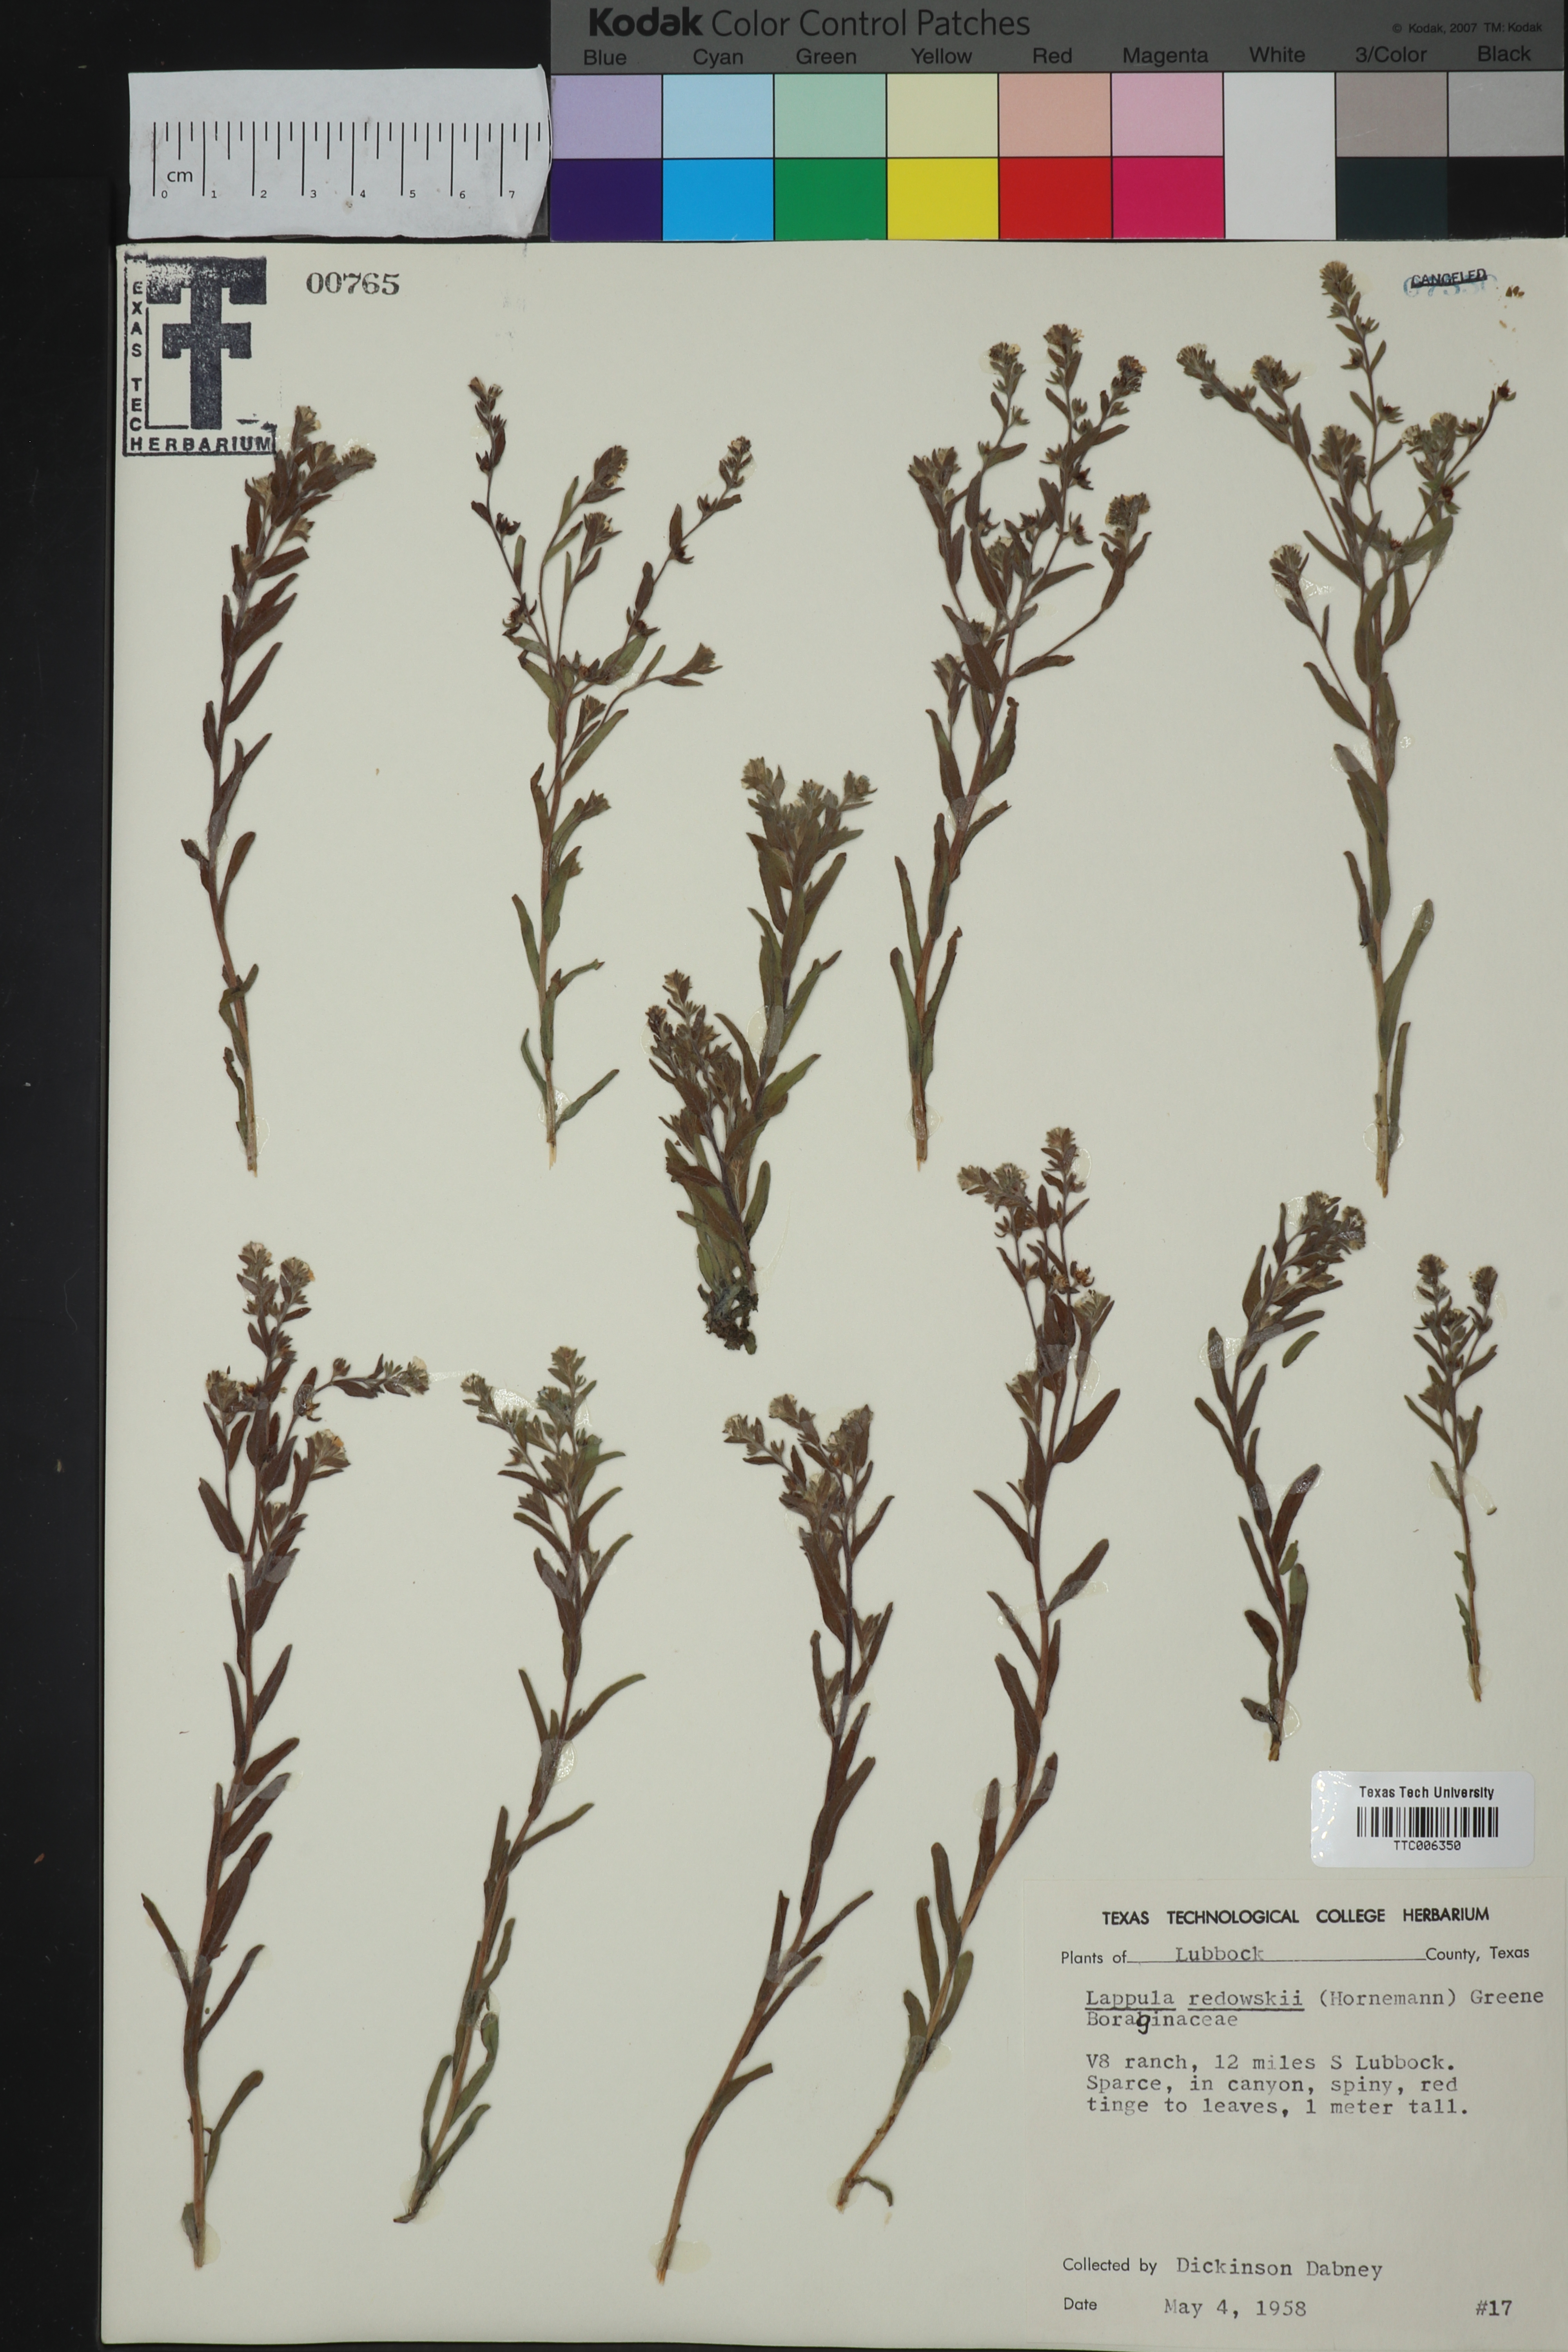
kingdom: Plantae
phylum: Tracheophyta
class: Magnoliopsida
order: Boraginales
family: Boraginaceae
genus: Lappula
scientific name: Lappula redowskii
